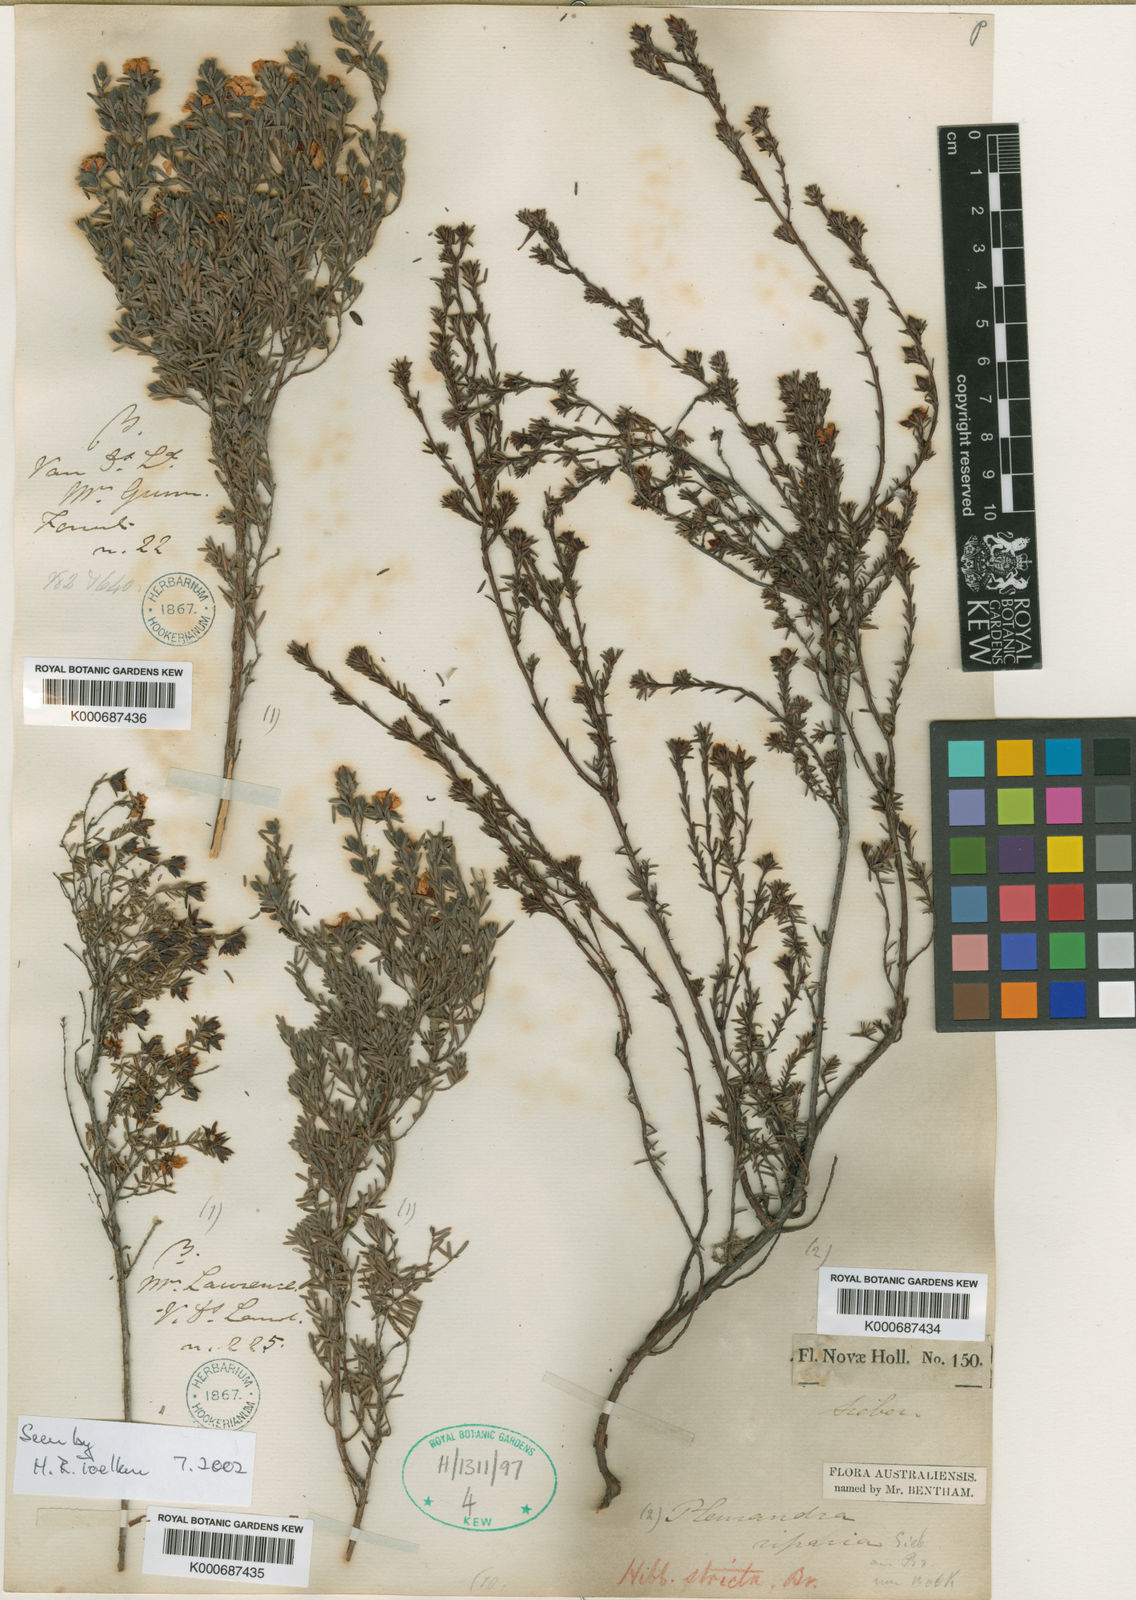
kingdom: Plantae
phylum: Tracheophyta
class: Magnoliopsida
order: Dilleniales
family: Dilleniaceae
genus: Hibbertia
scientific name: Hibbertia stricta
